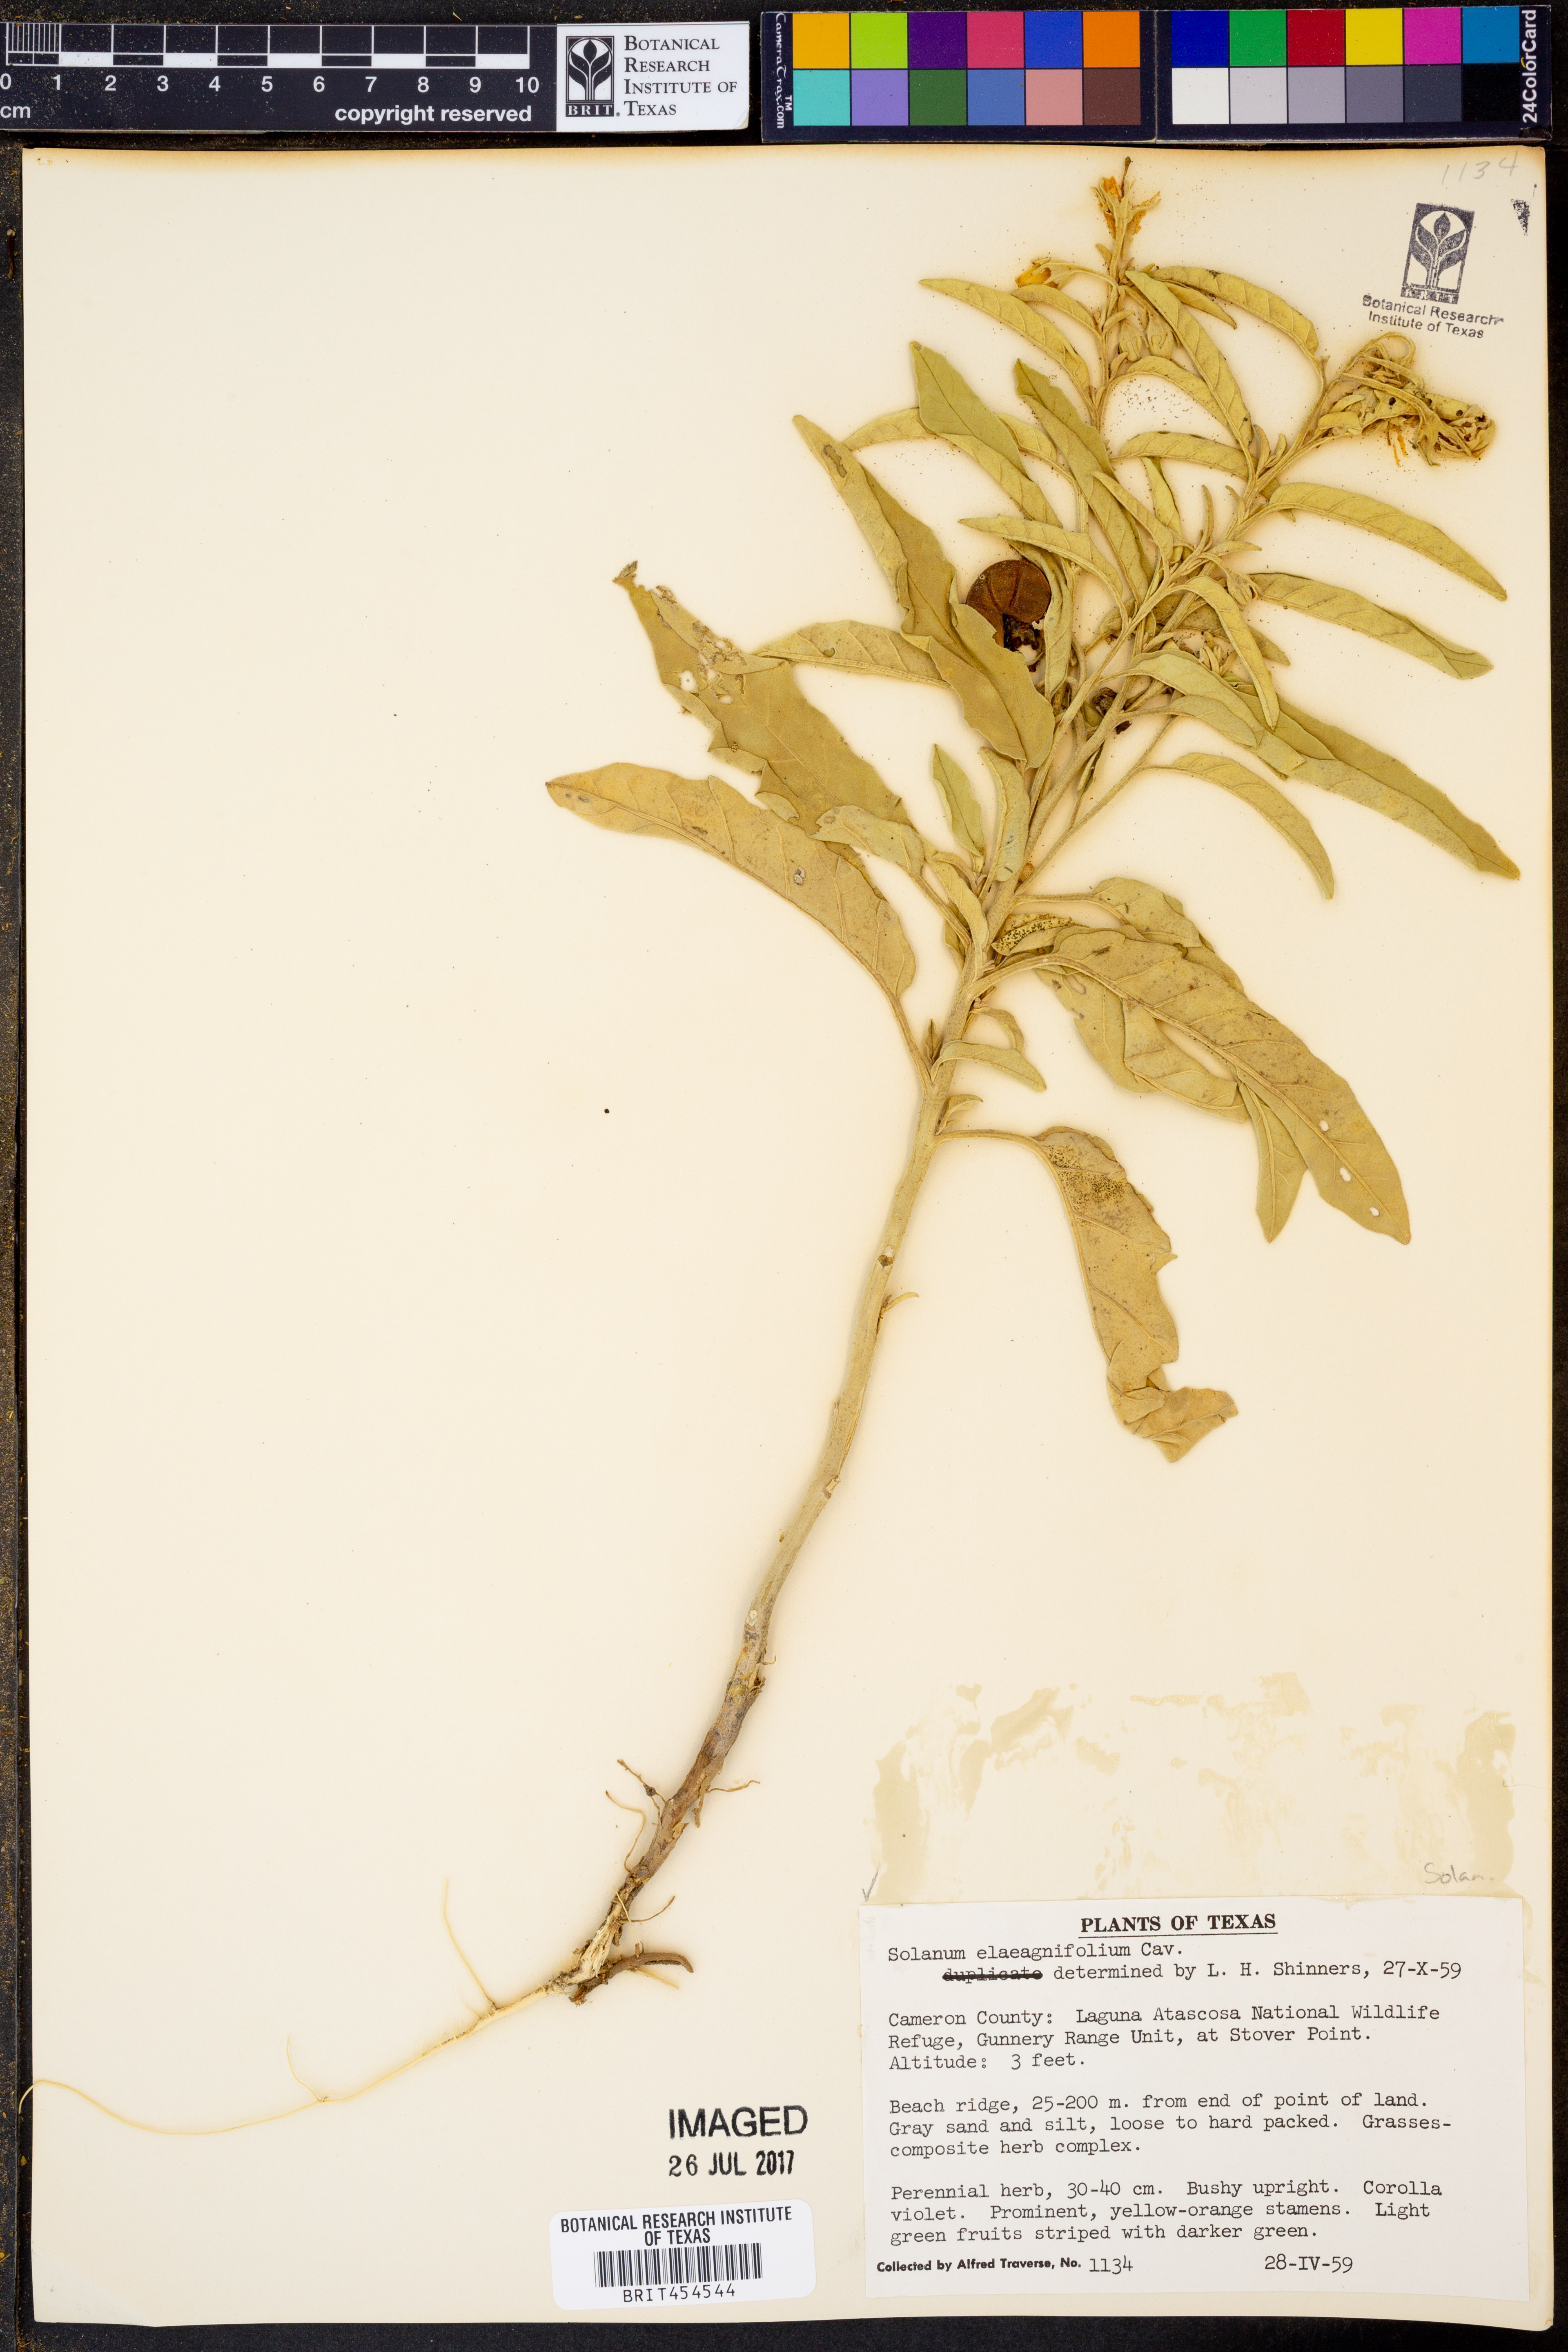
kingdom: Plantae
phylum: Tracheophyta
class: Magnoliopsida
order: Solanales
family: Solanaceae
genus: Solanum
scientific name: Solanum elaeagnifolium
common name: Silverleaf nightshade
